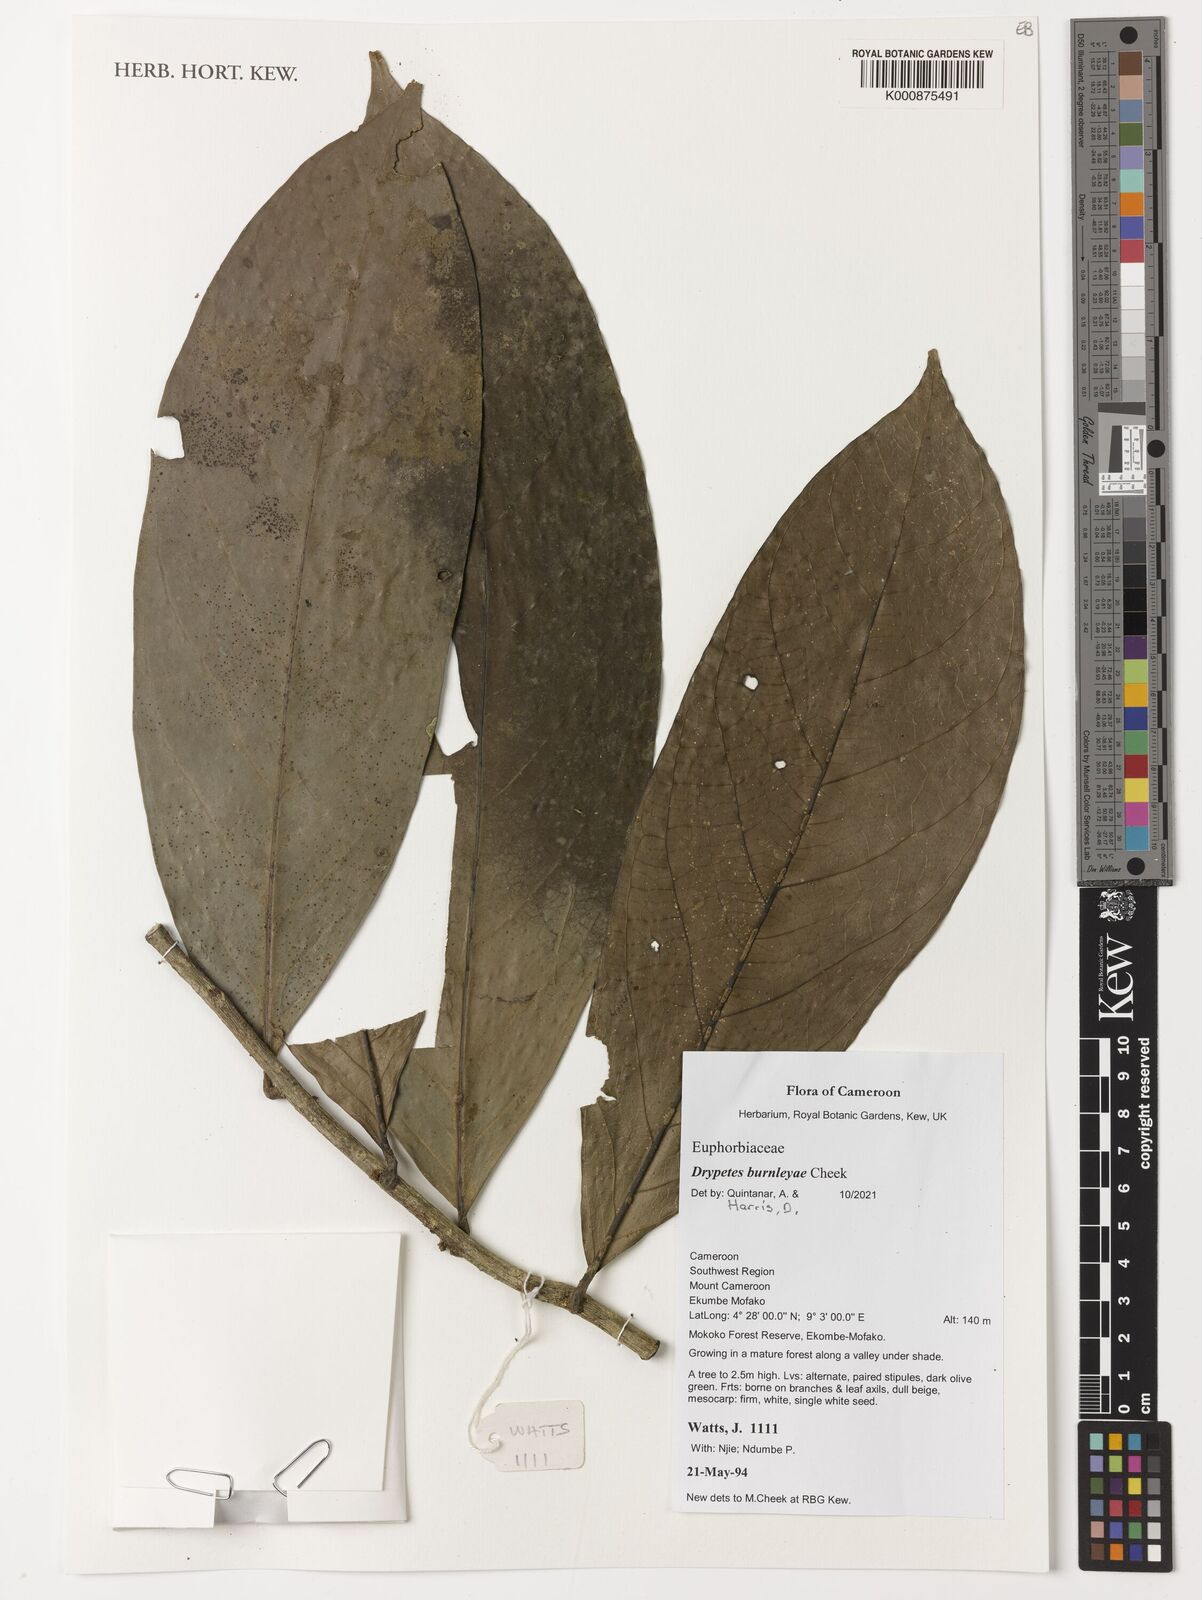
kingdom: Plantae
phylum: Tracheophyta
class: Magnoliopsida
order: Malpighiales
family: Putranjivaceae
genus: Drypetes
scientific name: Drypetes
